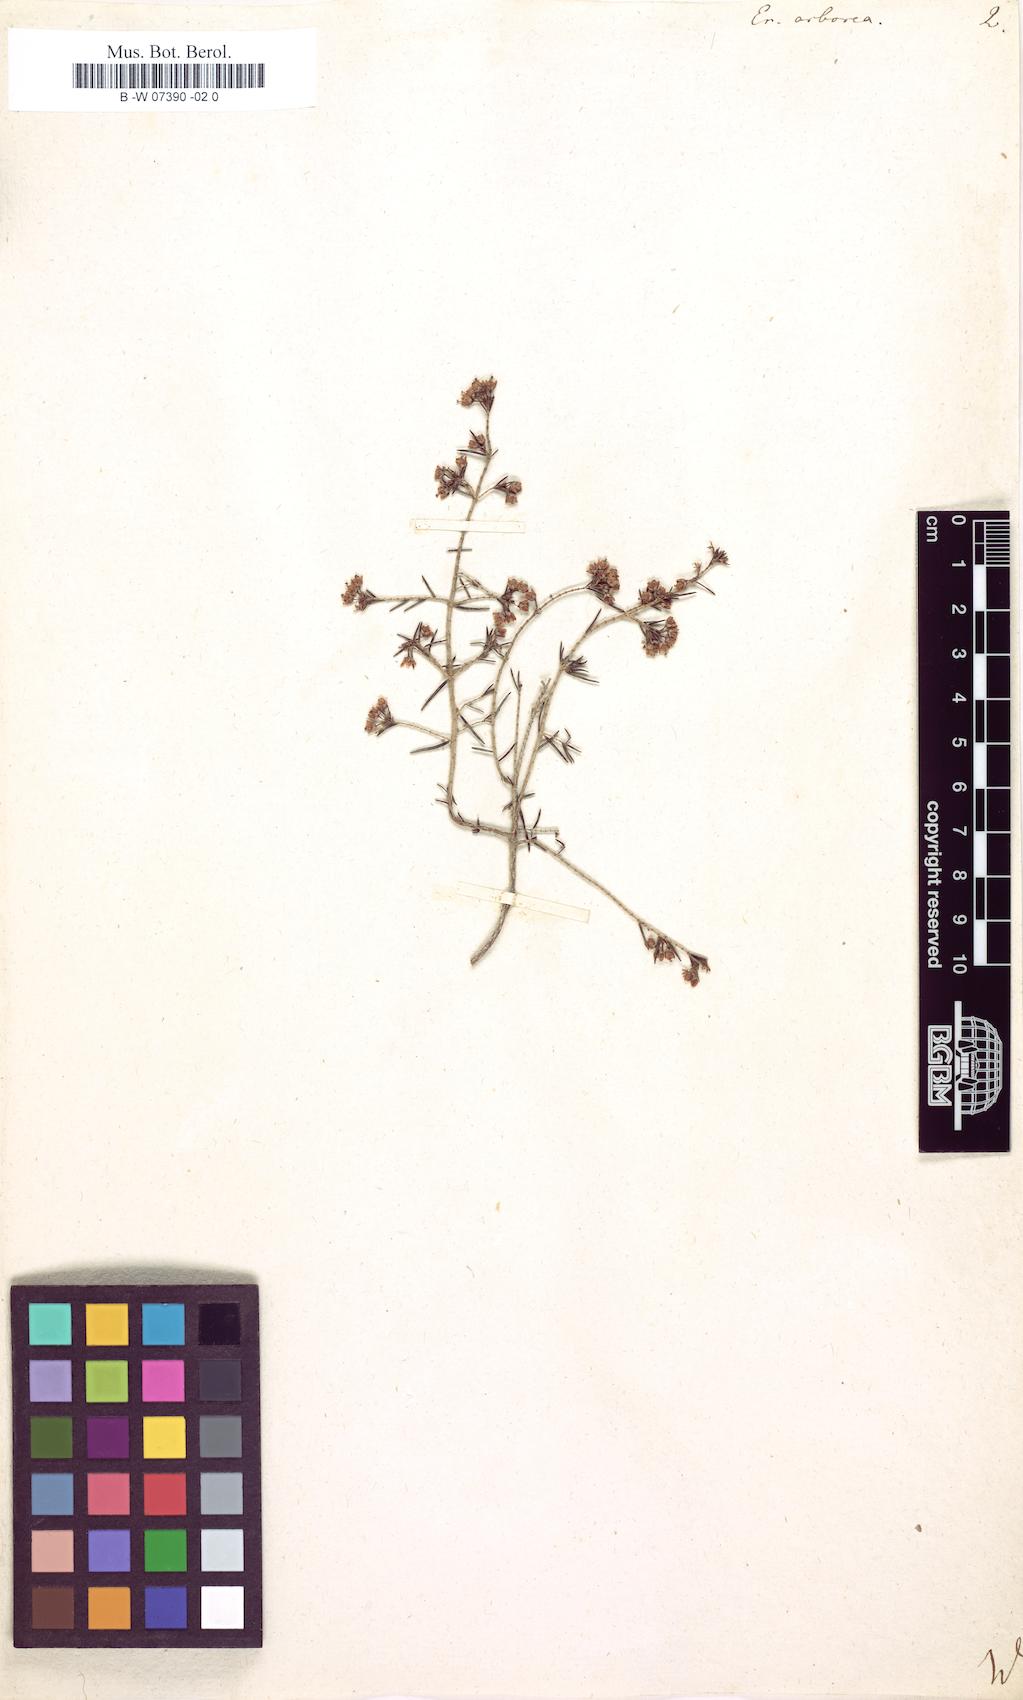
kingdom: Plantae
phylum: Tracheophyta
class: Magnoliopsida
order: Ericales
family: Ericaceae
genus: Erica
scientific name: Erica arborea
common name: Tree heath
